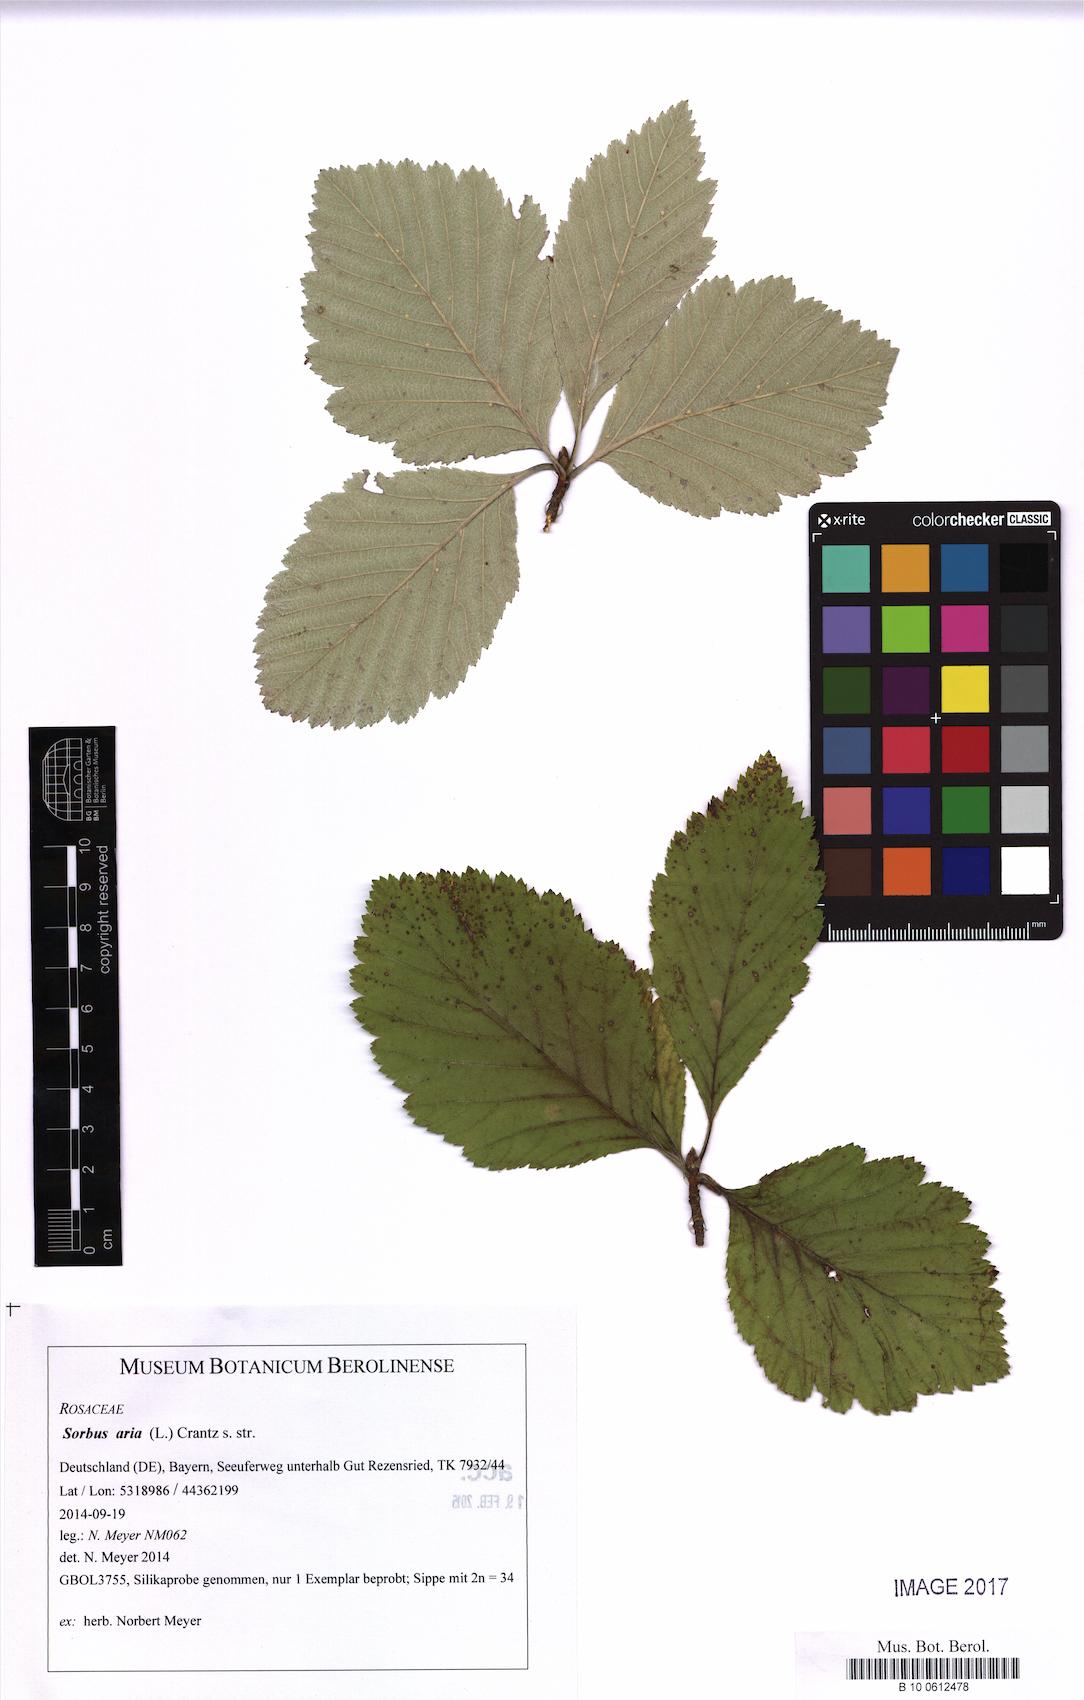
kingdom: Plantae
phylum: Tracheophyta
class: Magnoliopsida
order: Rosales
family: Rosaceae
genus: Aria
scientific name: Aria edulis
